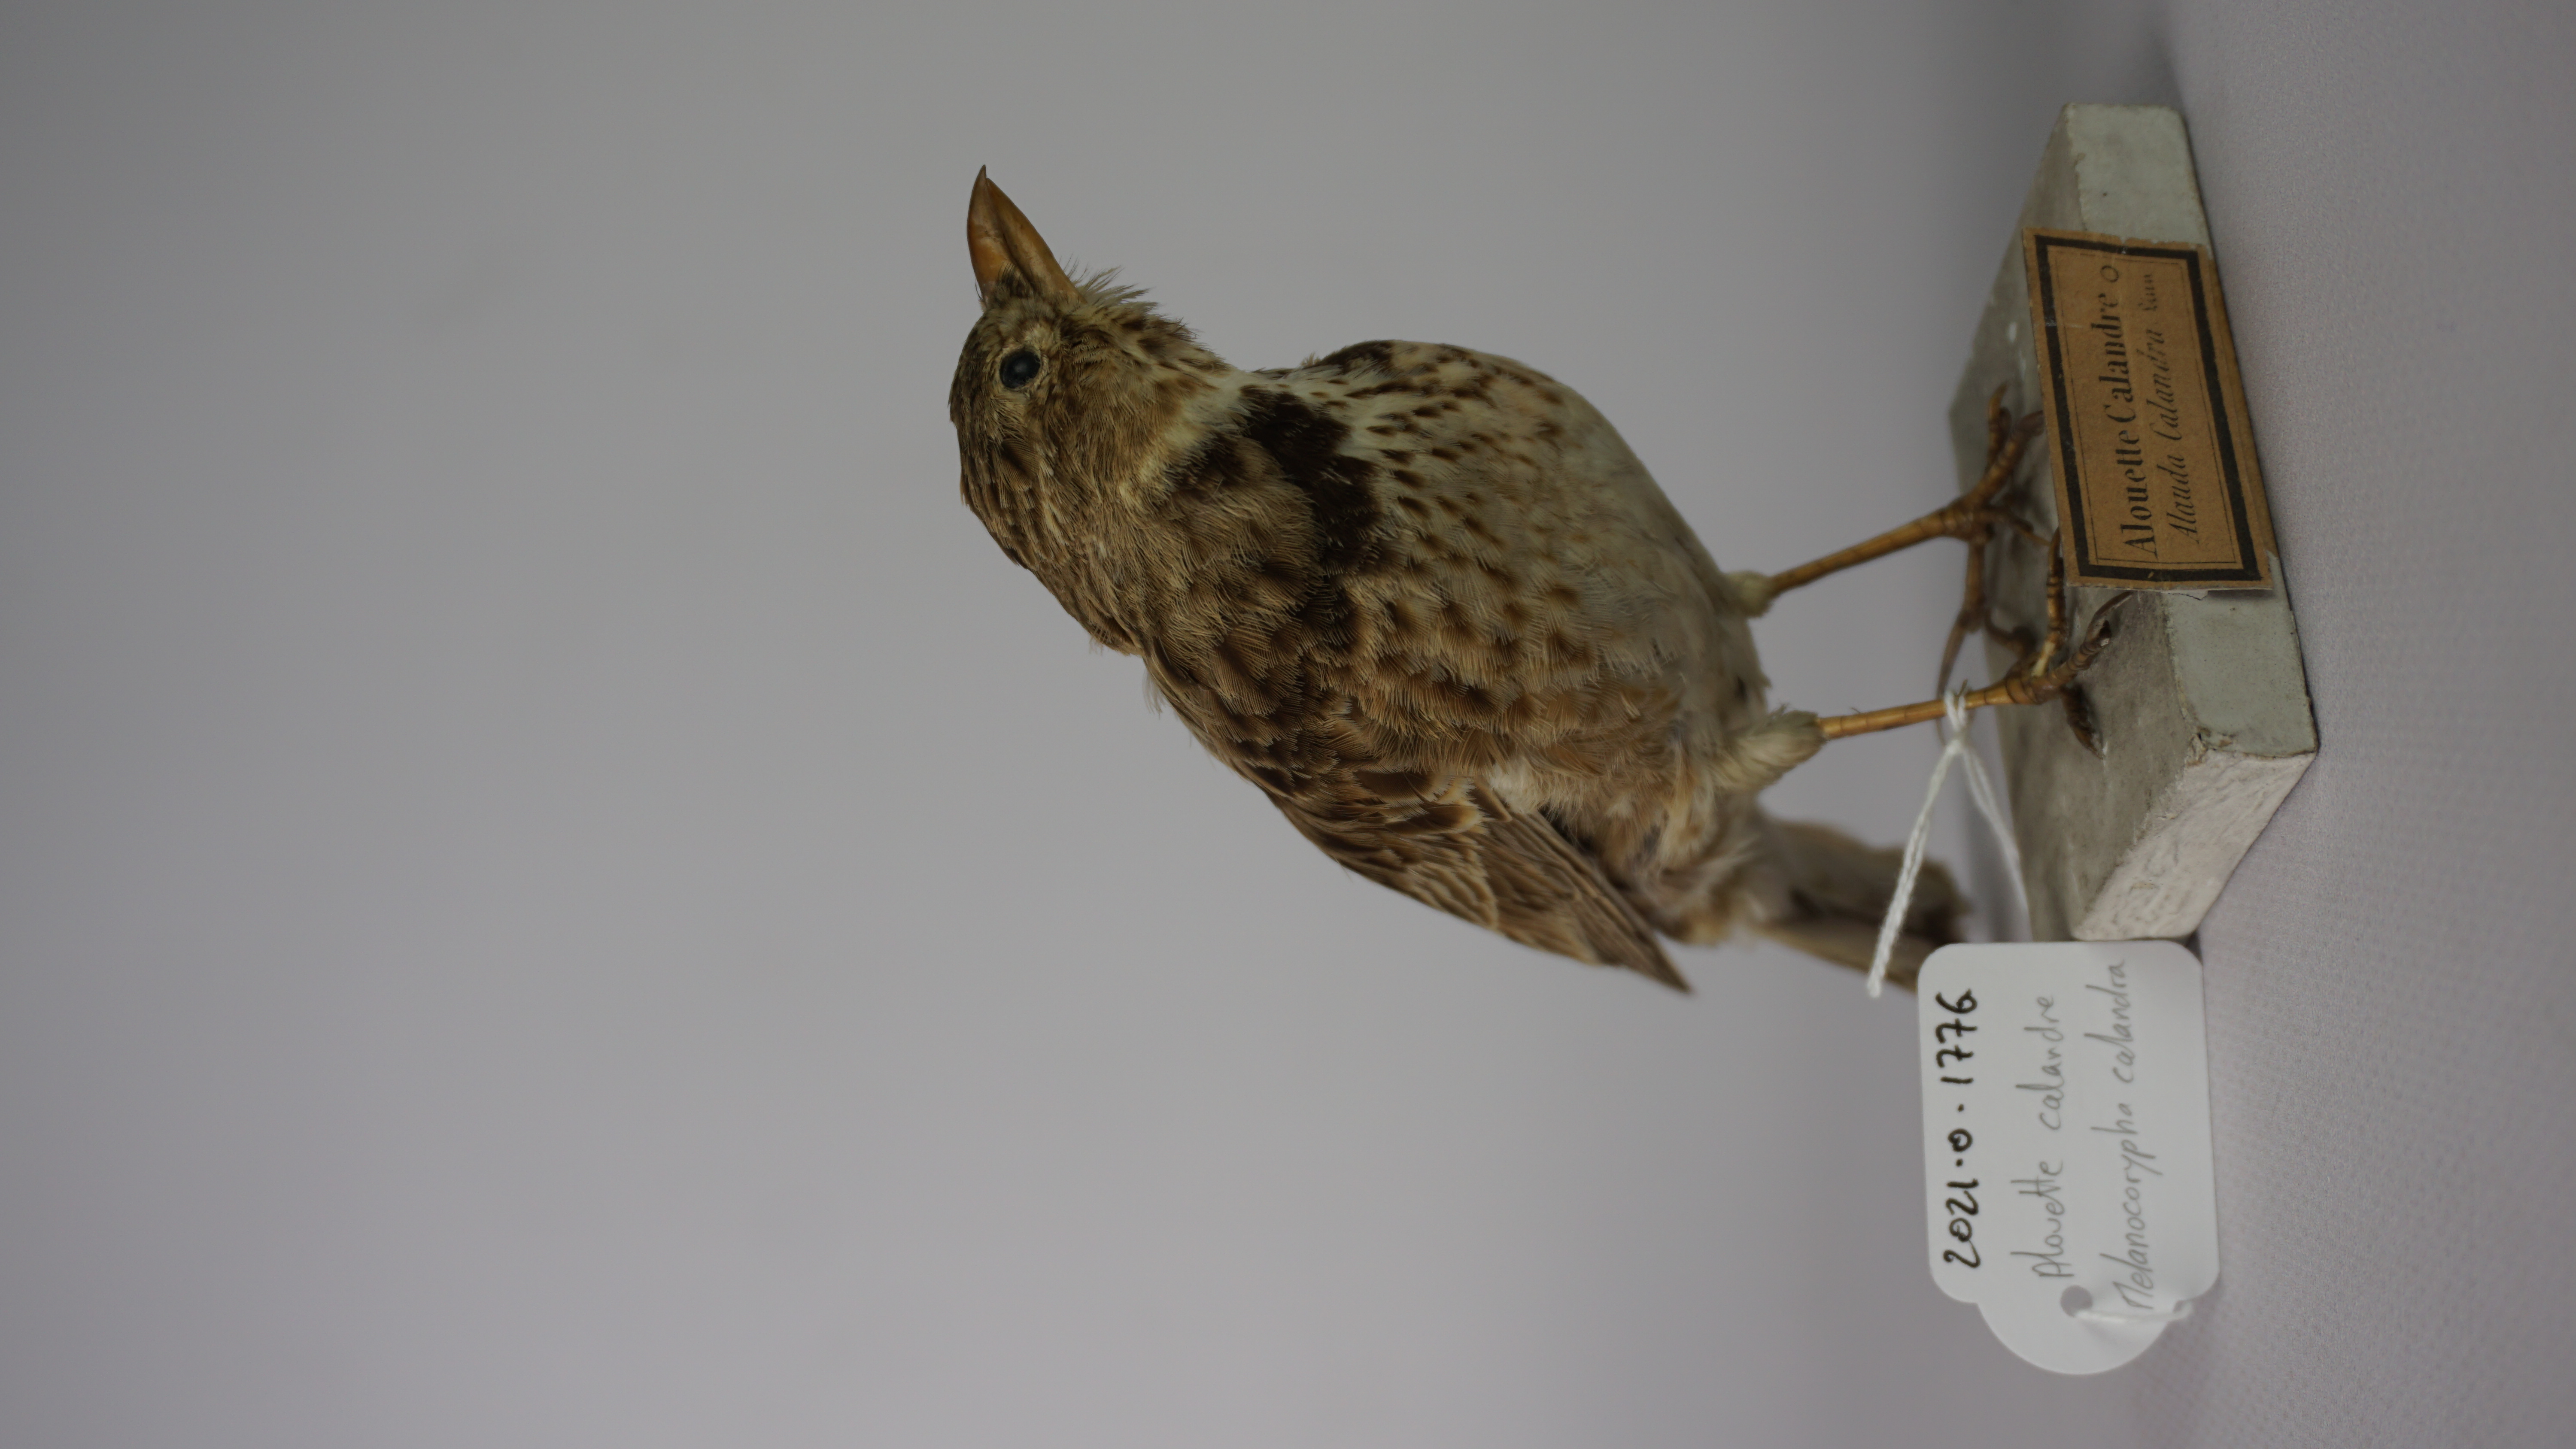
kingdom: Animalia
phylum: Chordata
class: Aves
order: Passeriformes
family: Alaudidae
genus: Melanocorypha
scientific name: Melanocorypha calandra
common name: Calandra lark
